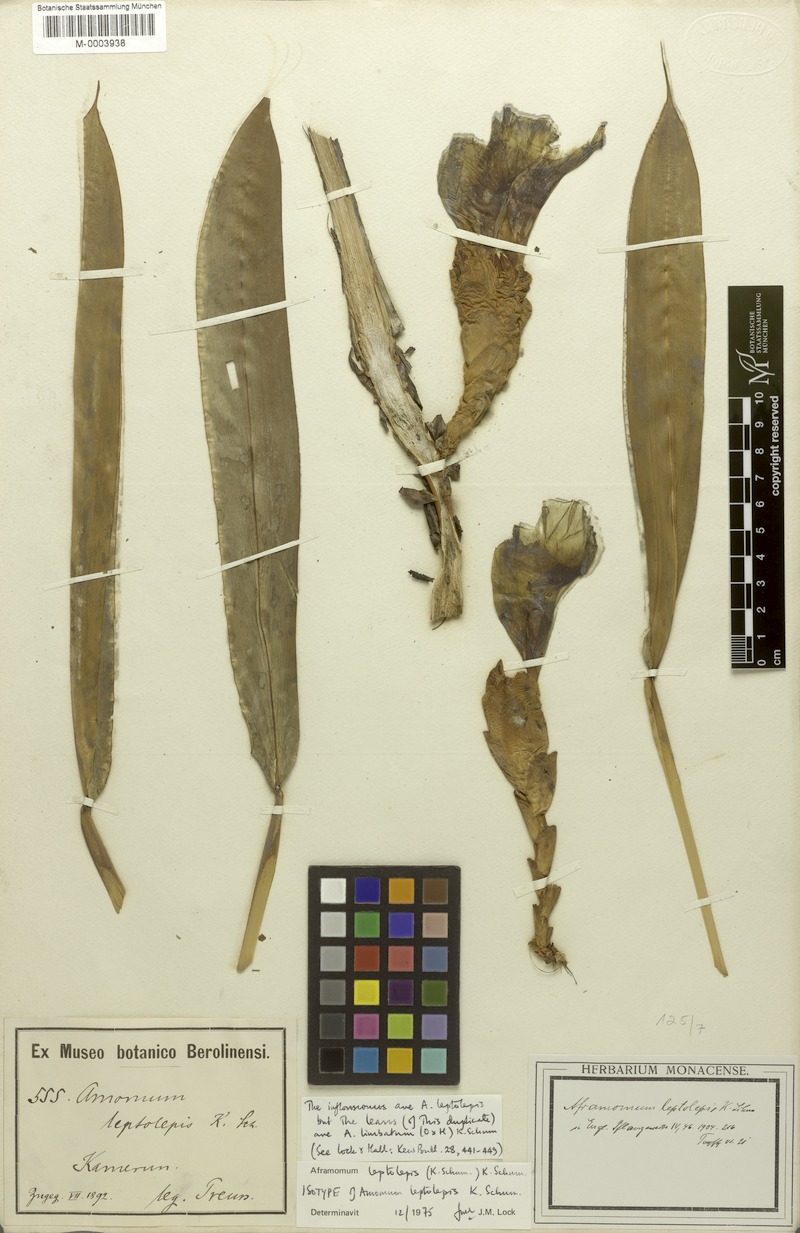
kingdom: Plantae
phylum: Tracheophyta
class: Liliopsida
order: Zingiberales
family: Zingiberaceae
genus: Aframomum
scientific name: Aframomum leptolepis
